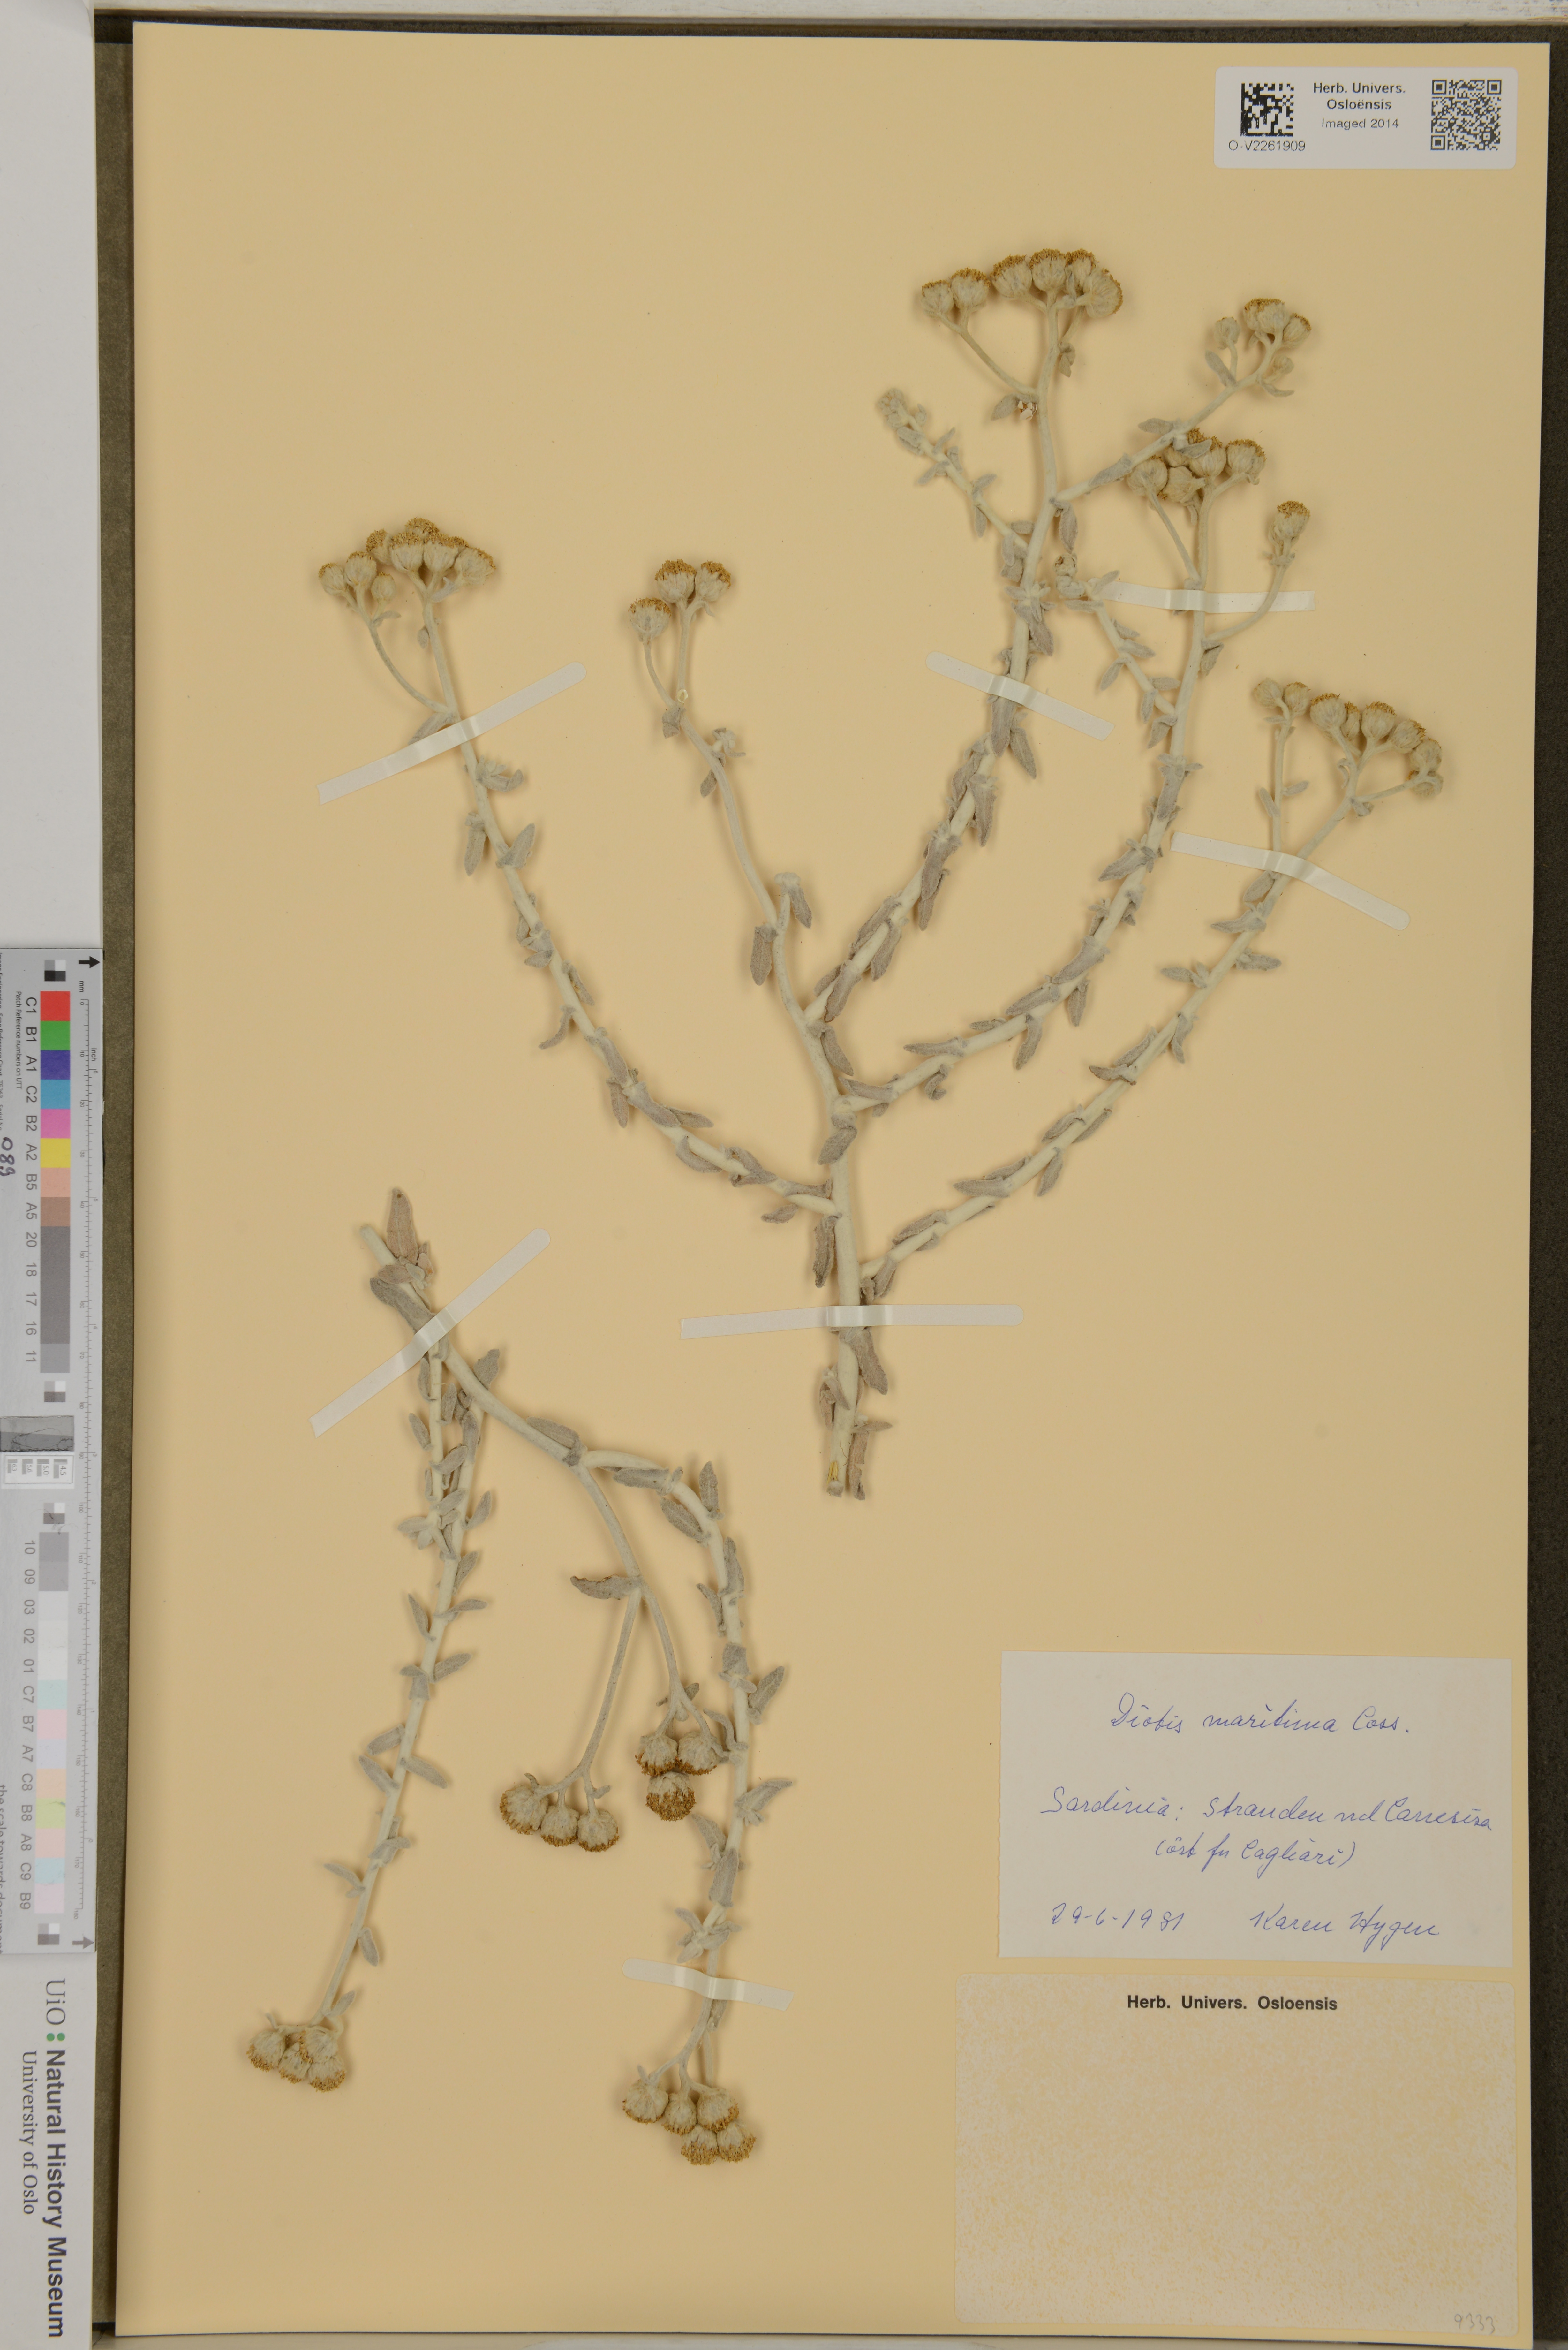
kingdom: Plantae
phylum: Tracheophyta
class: Magnoliopsida
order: Asterales
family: Asteraceae
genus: Achillea
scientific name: Achillea maritima
